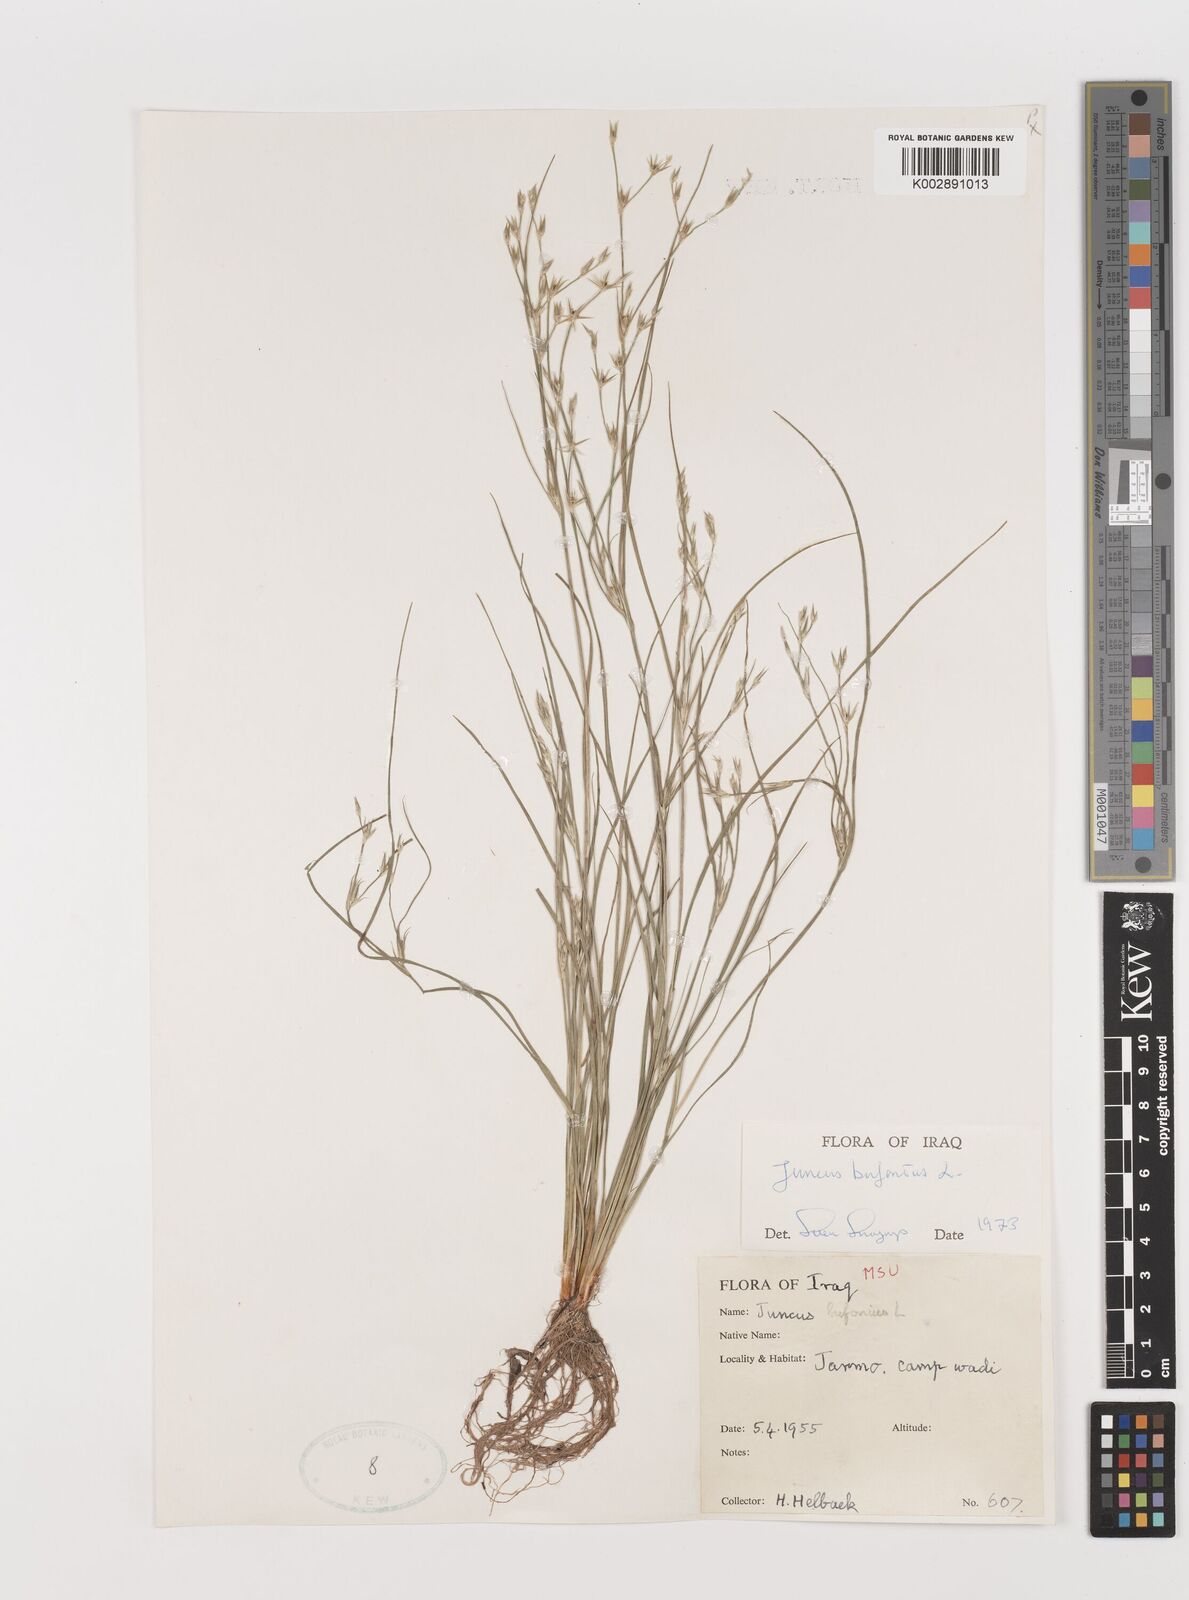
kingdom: Plantae
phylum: Tracheophyta
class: Liliopsida
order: Poales
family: Juncaceae
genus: Juncus
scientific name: Juncus bufonius
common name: Toad rush
